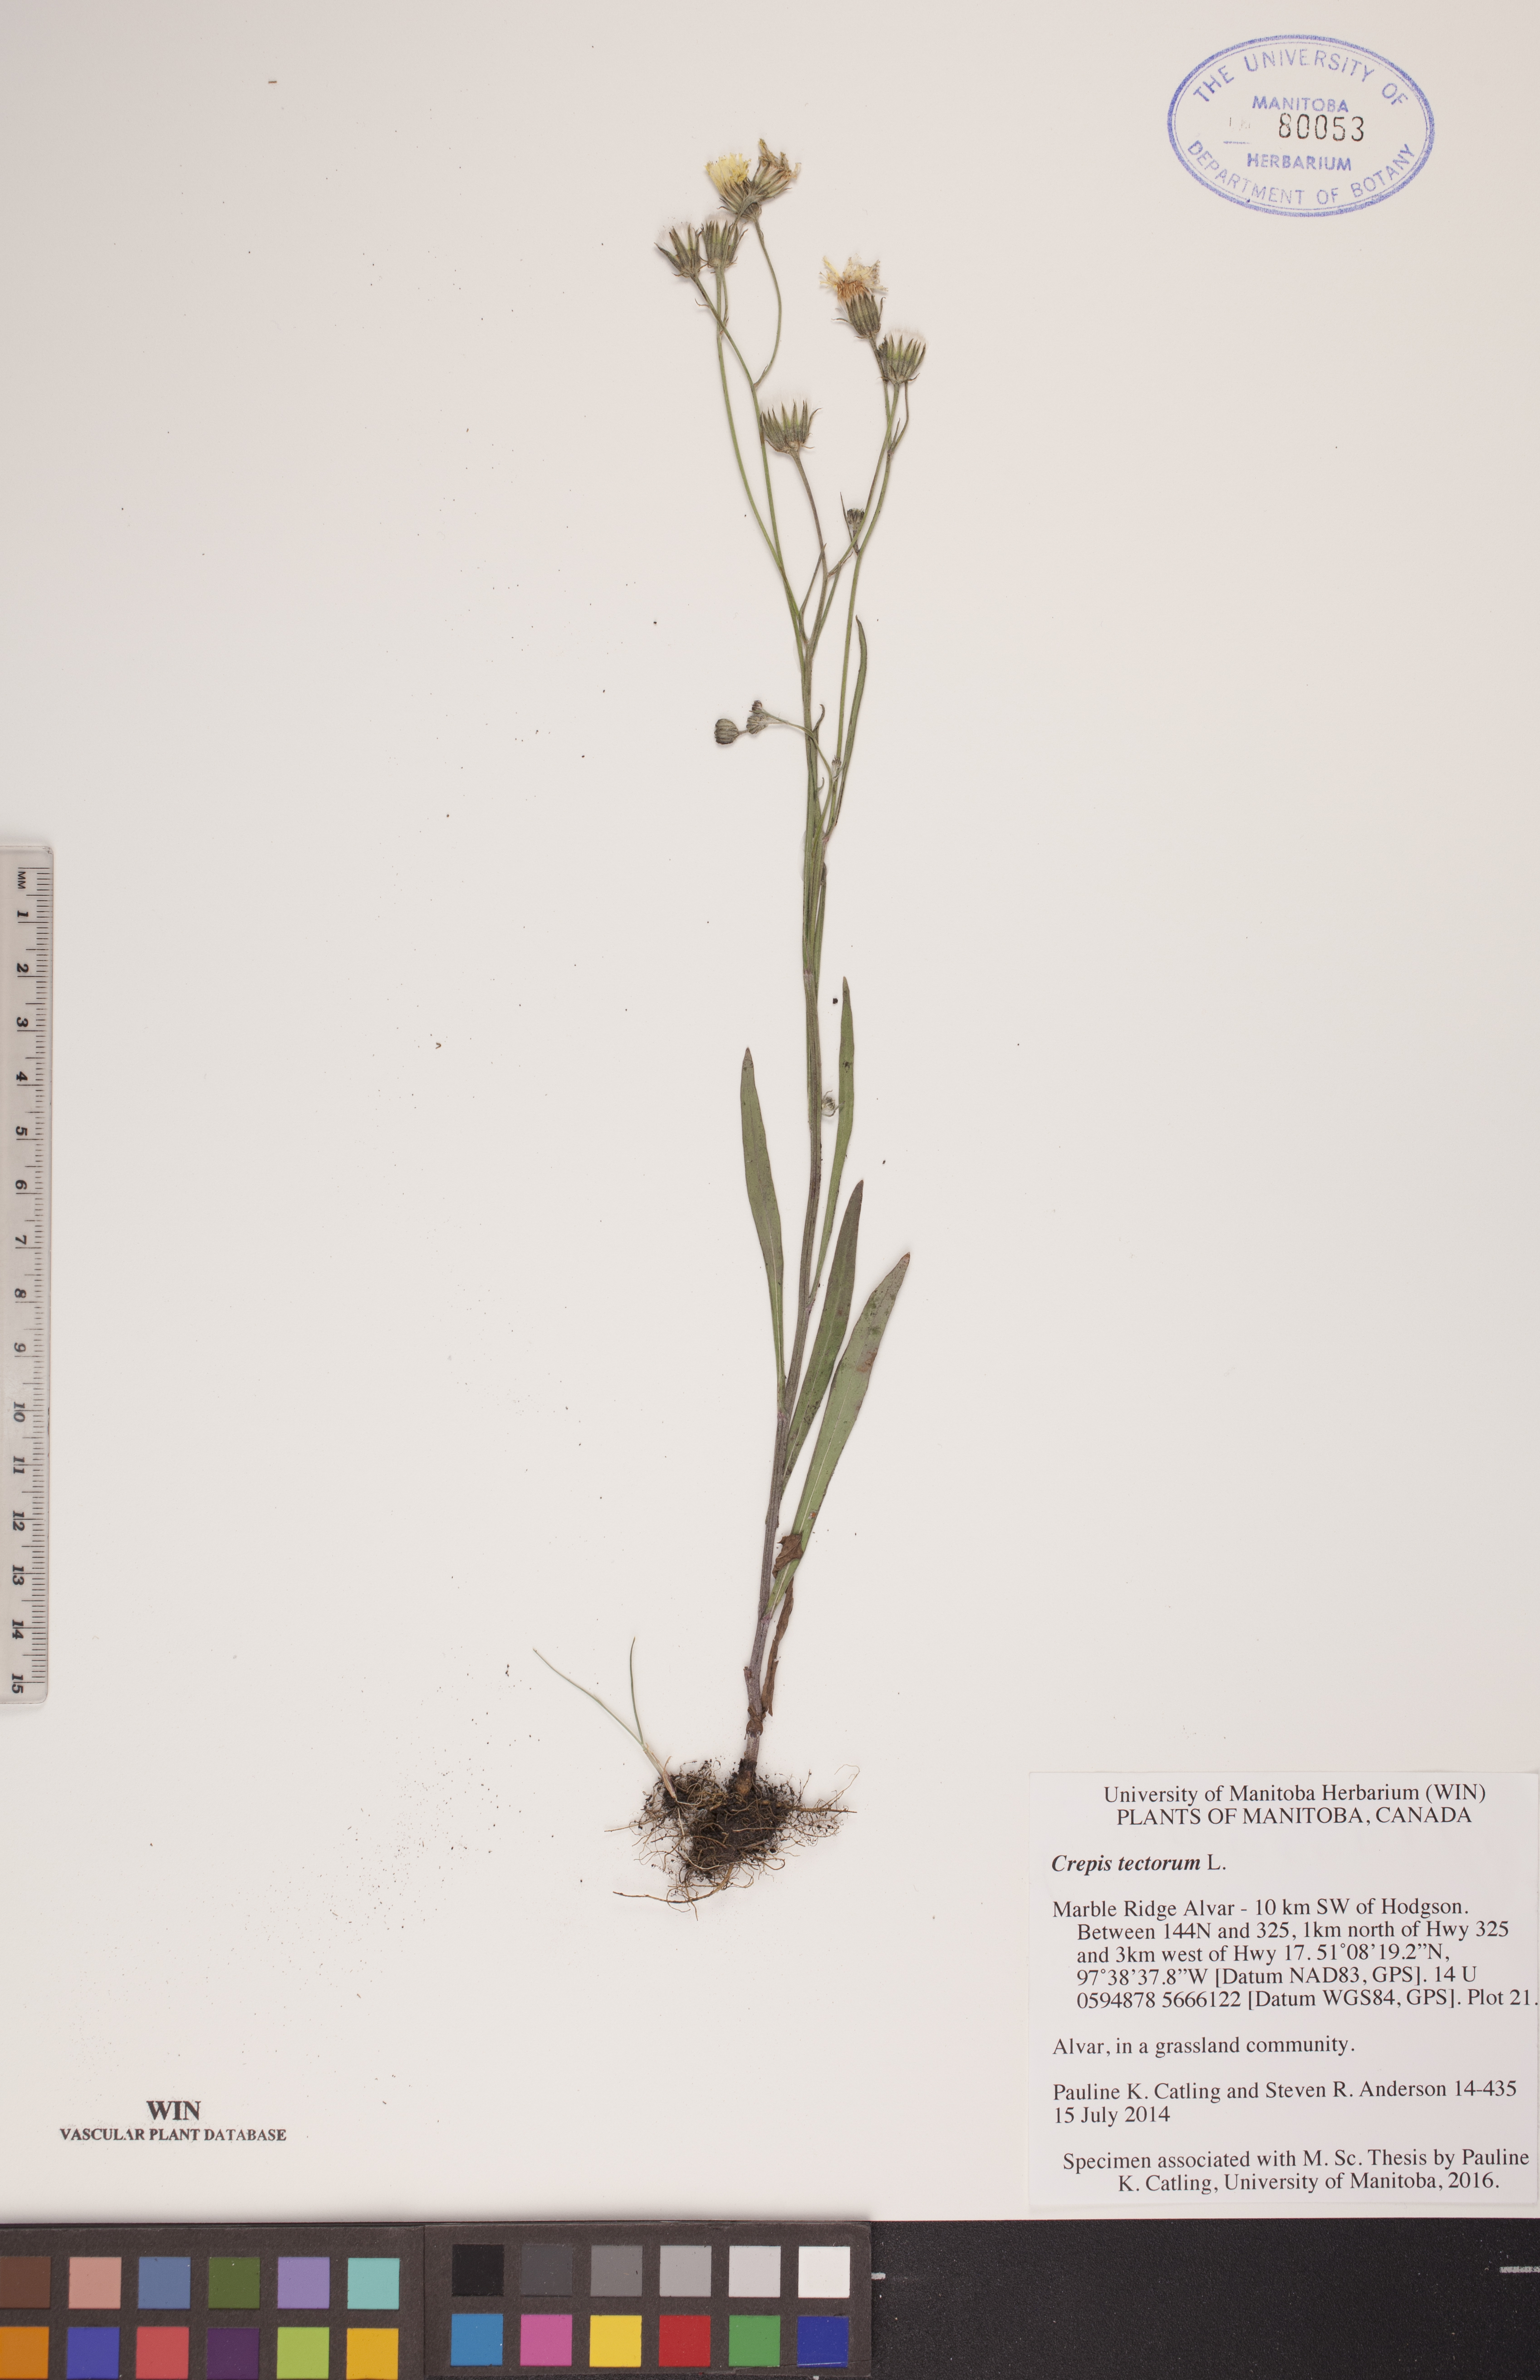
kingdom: Plantae
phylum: Tracheophyta
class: Magnoliopsida
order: Asterales
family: Asteraceae
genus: Crepis
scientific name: Crepis tectorum
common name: Narrow-leaved hawk's-beard
